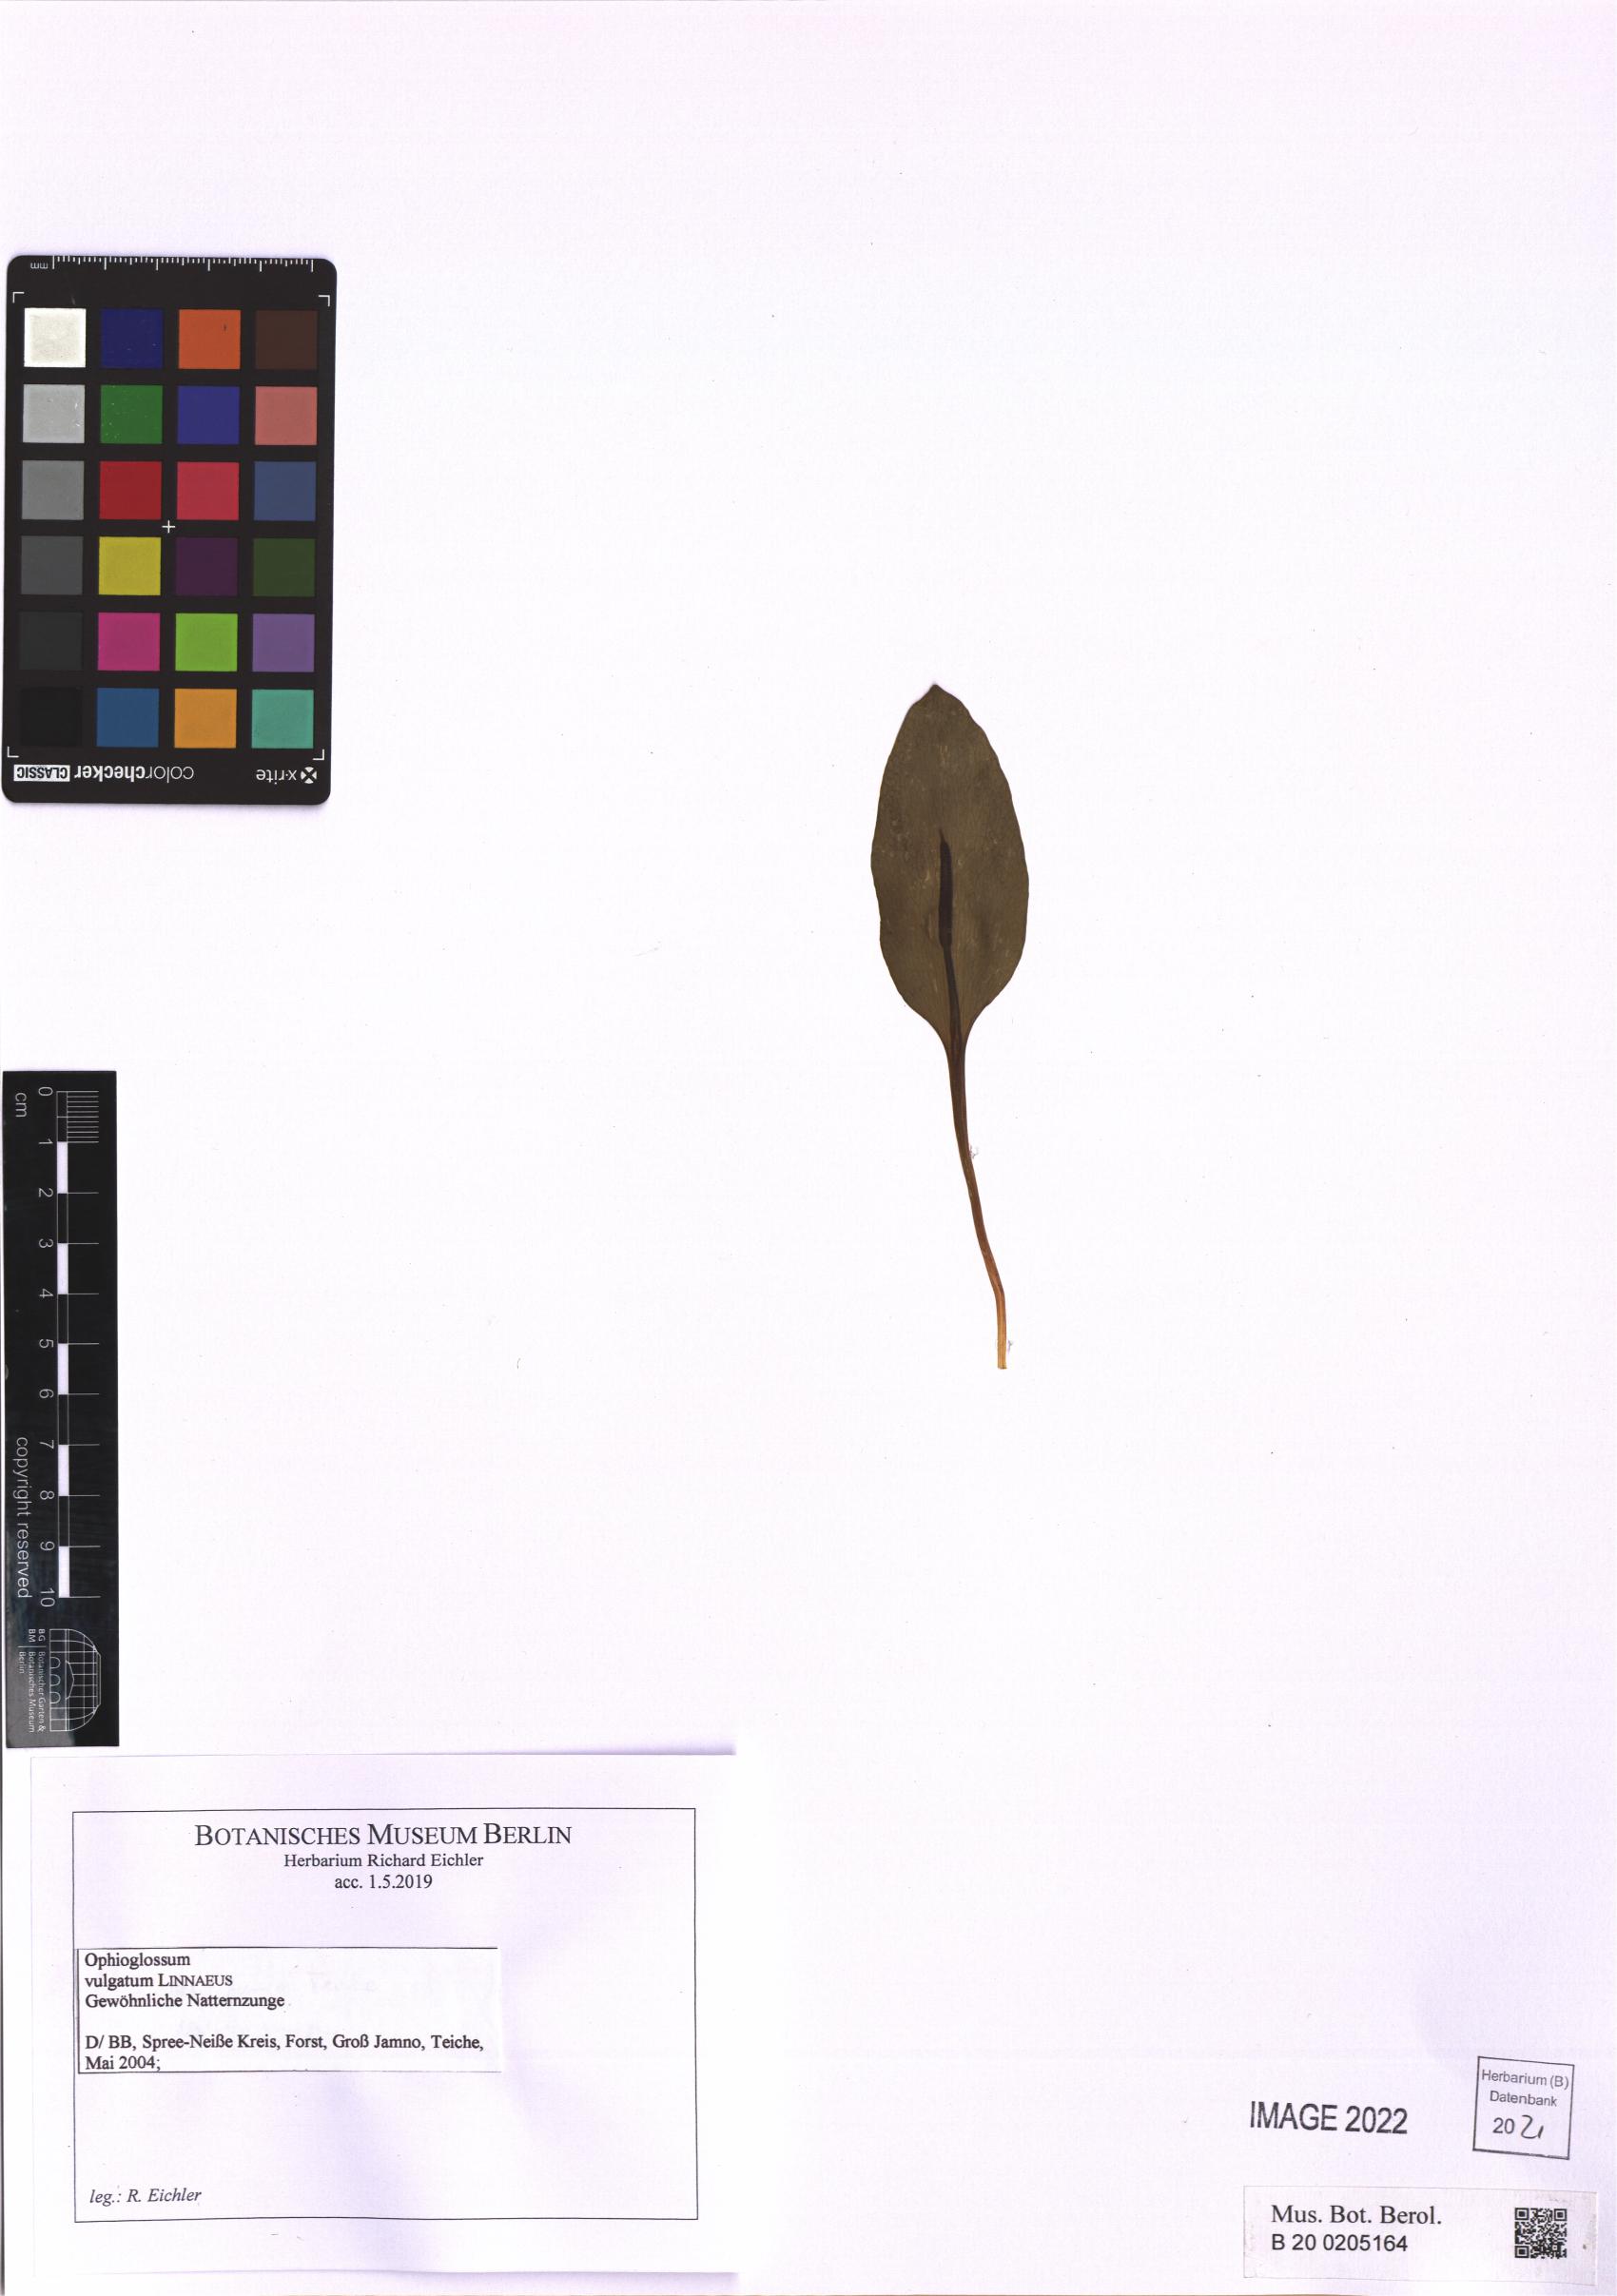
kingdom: Plantae
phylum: Tracheophyta
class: Polypodiopsida
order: Ophioglossales
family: Ophioglossaceae
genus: Ophioglossum
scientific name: Ophioglossum vulgatum
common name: Adder's-tongue
